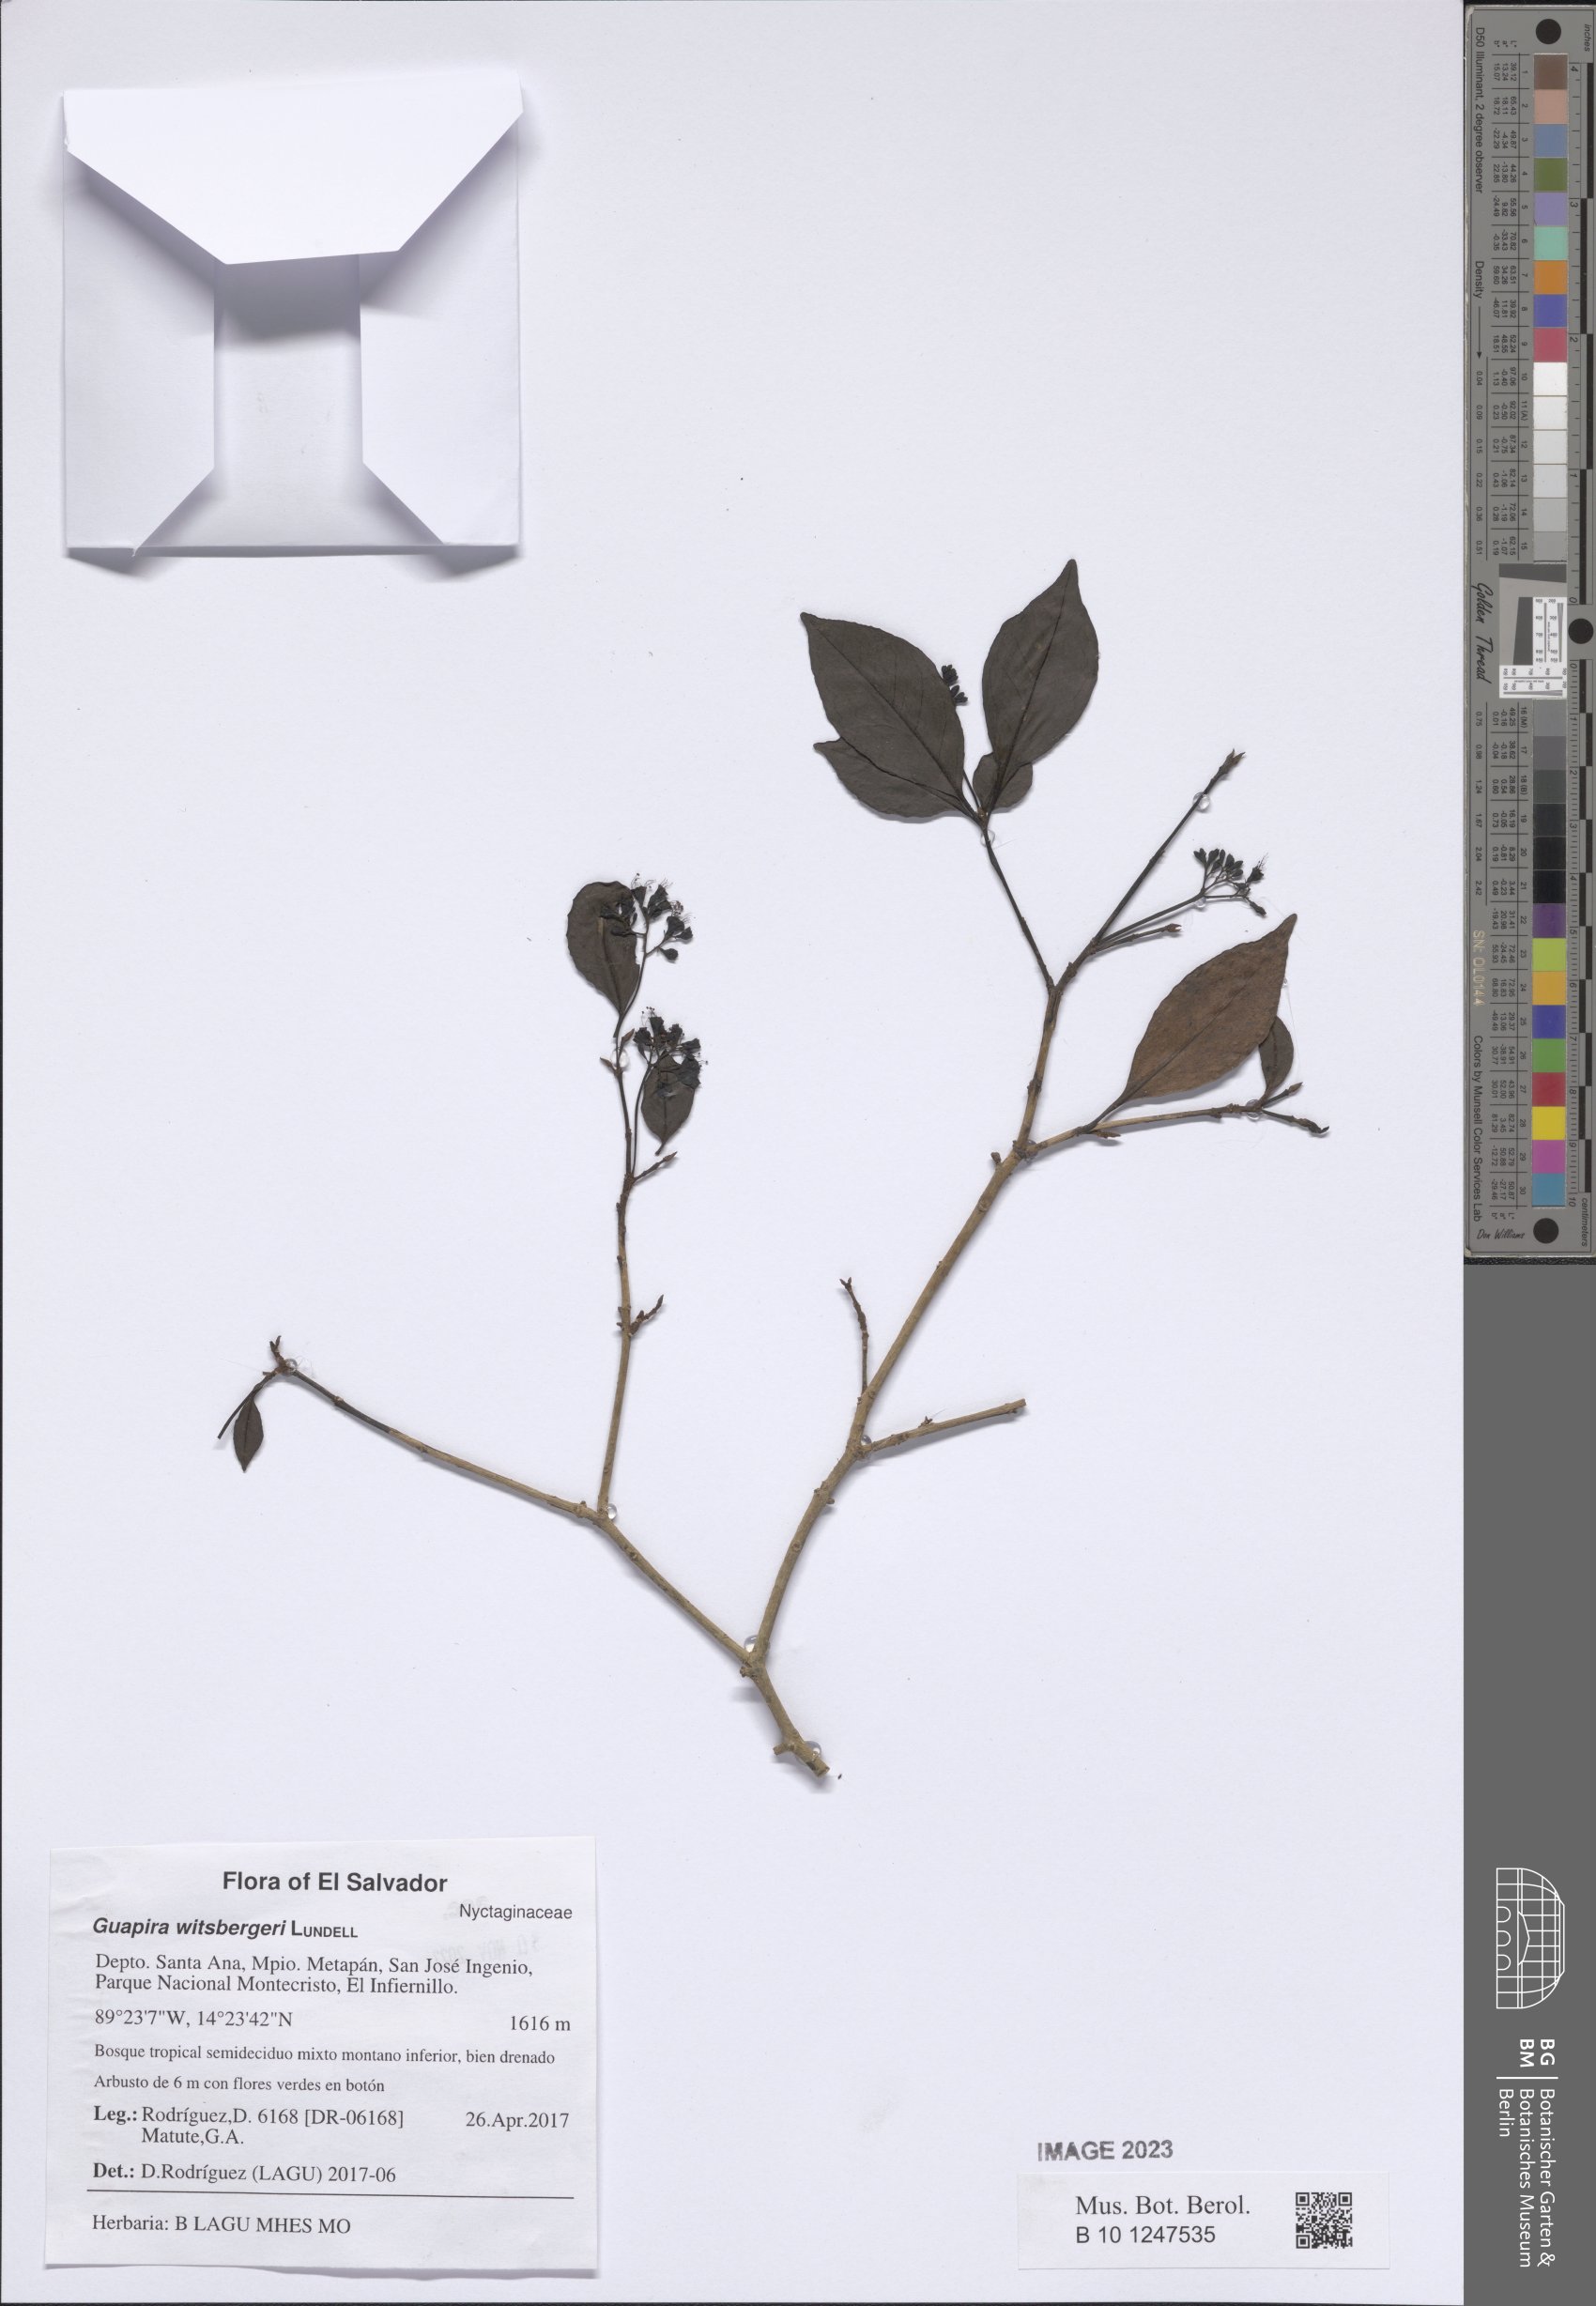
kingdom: Plantae
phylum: Tracheophyta
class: Magnoliopsida
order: Caryophyllales
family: Nyctaginaceae
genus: Guapira
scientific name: Guapira witsbergeri
